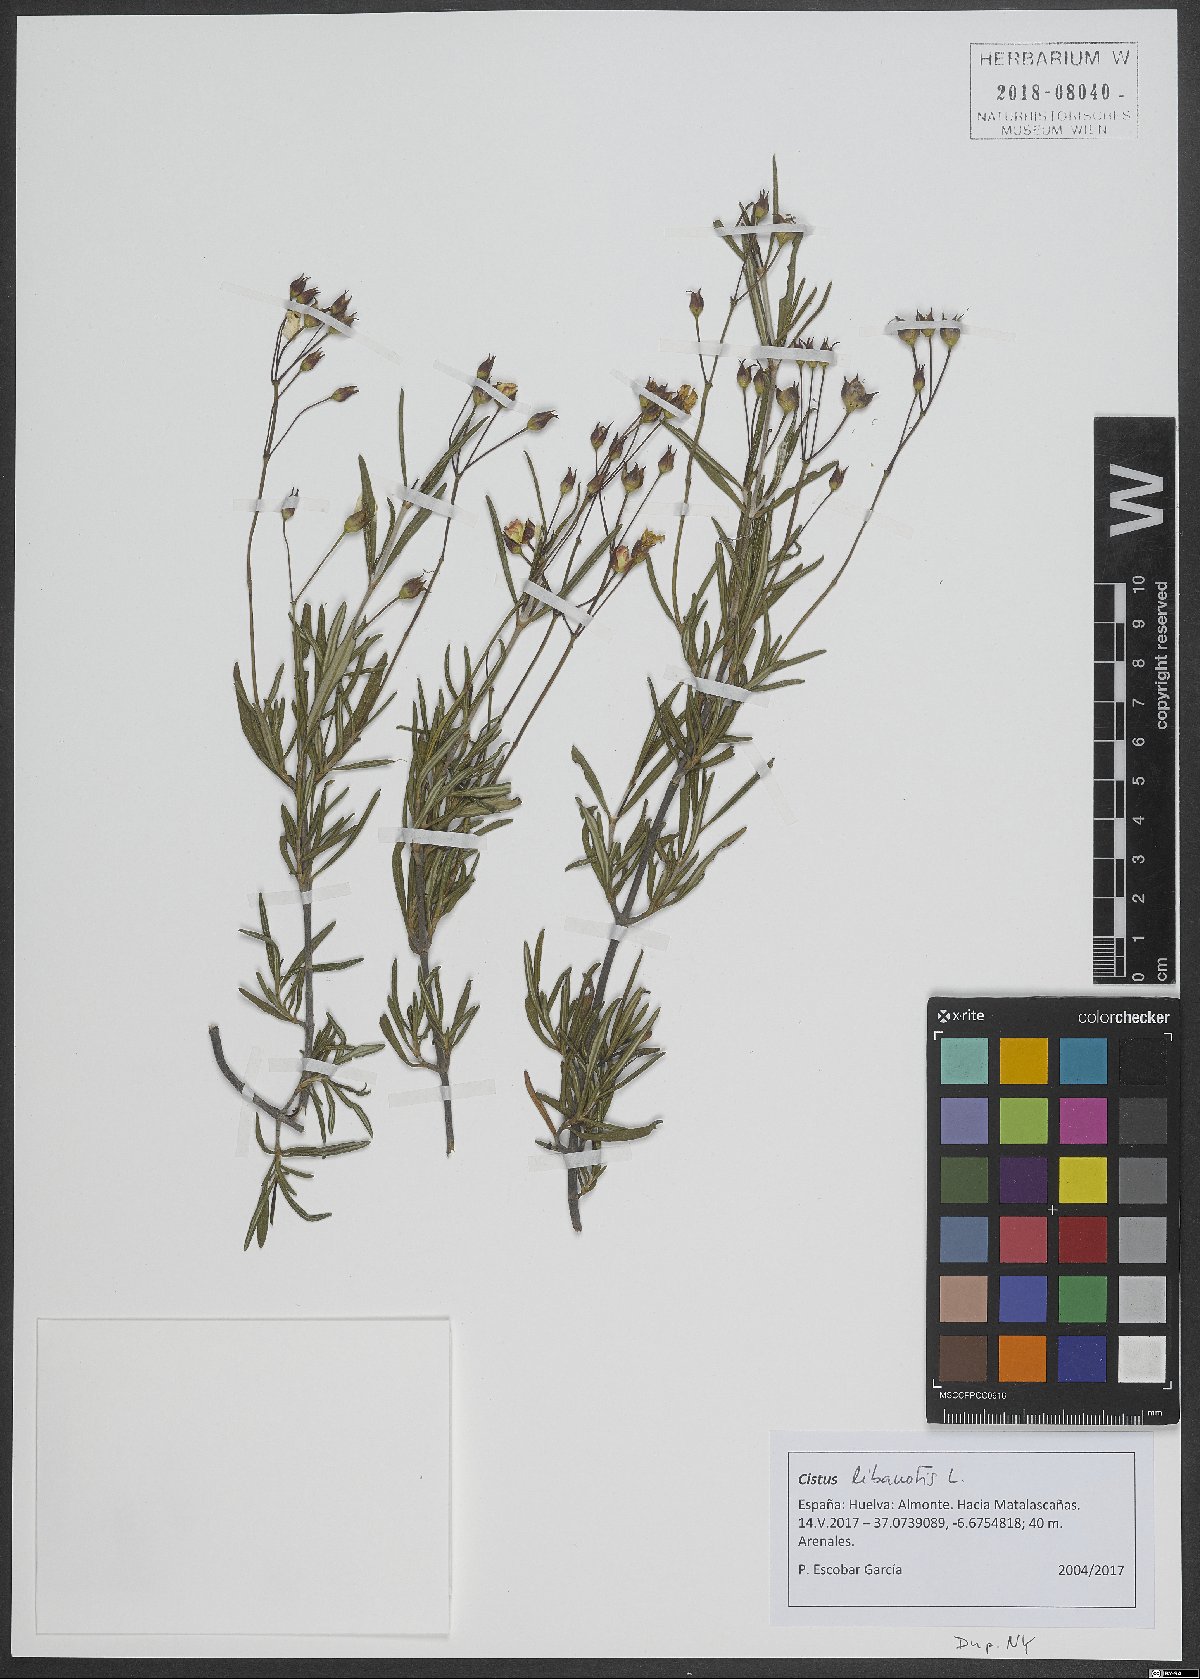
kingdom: Plantae
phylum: Tracheophyta
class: Magnoliopsida
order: Malvales
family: Cistaceae
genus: Cistus
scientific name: Cistus libanotis
